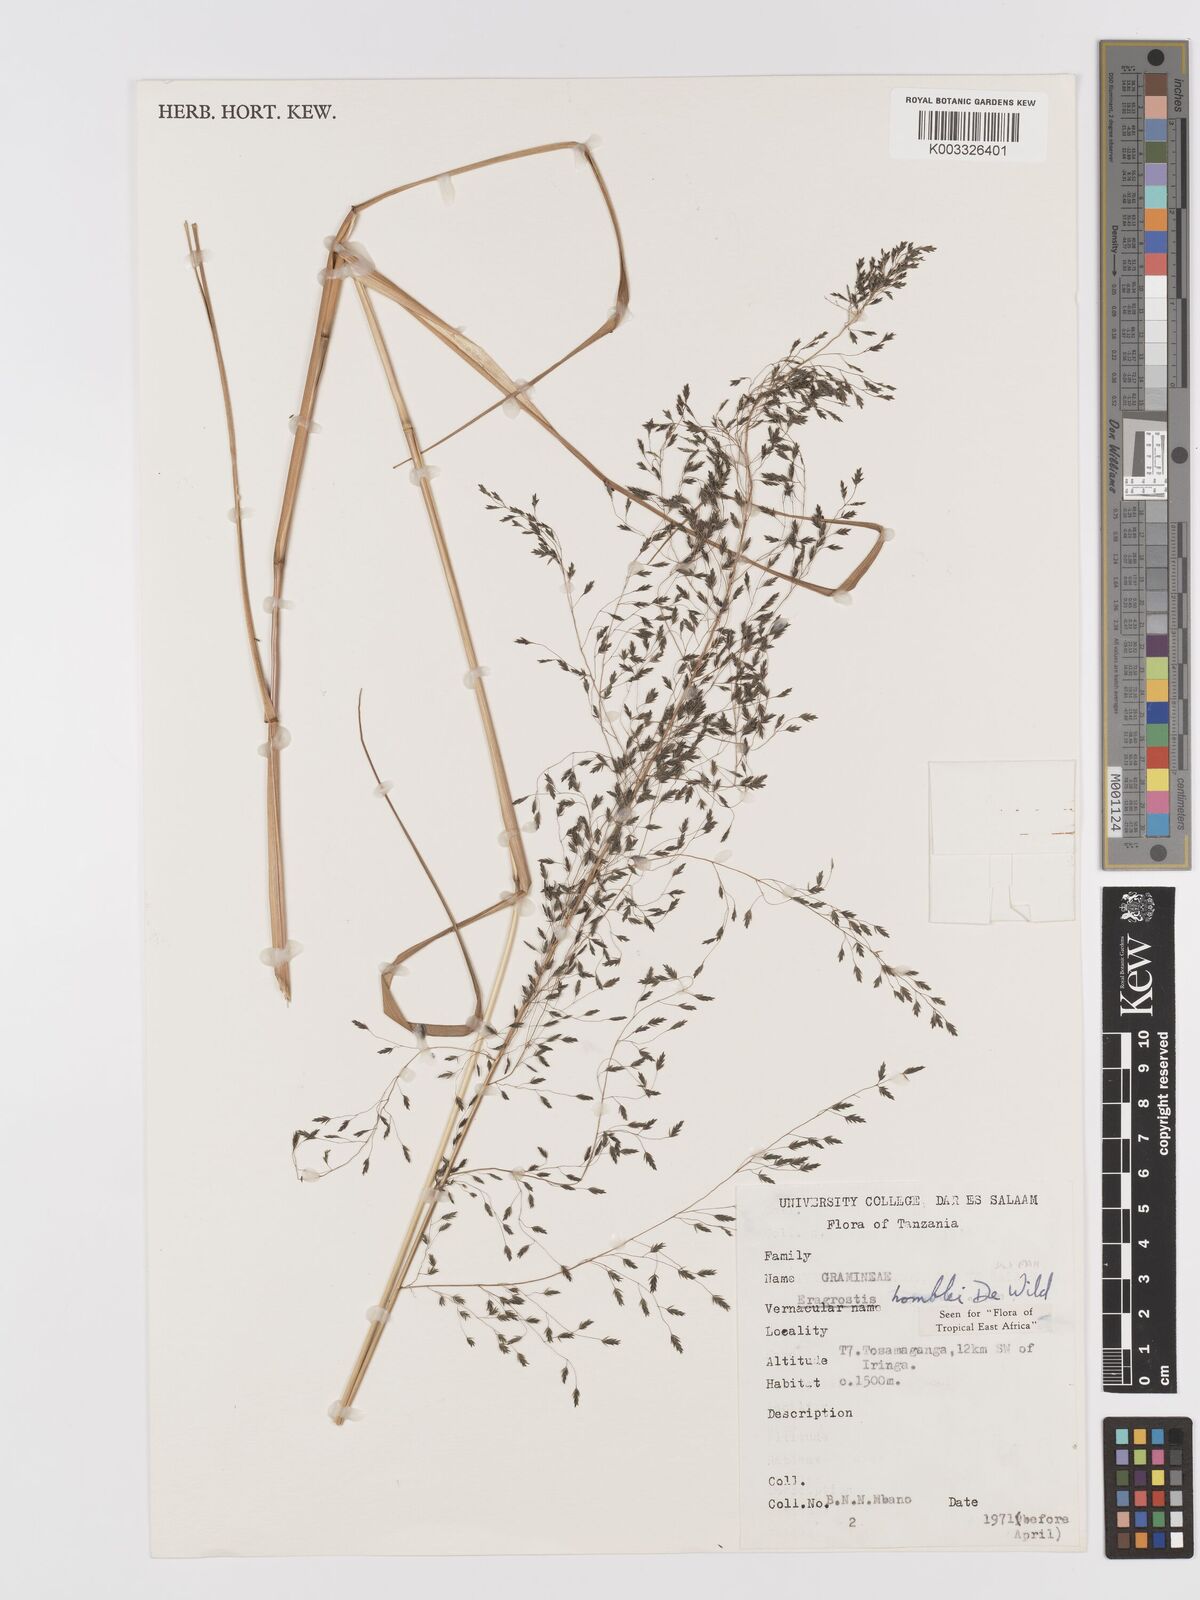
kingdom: Plantae
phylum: Tracheophyta
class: Liliopsida
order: Poales
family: Poaceae
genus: Eragrostis
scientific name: Eragrostis homblei
